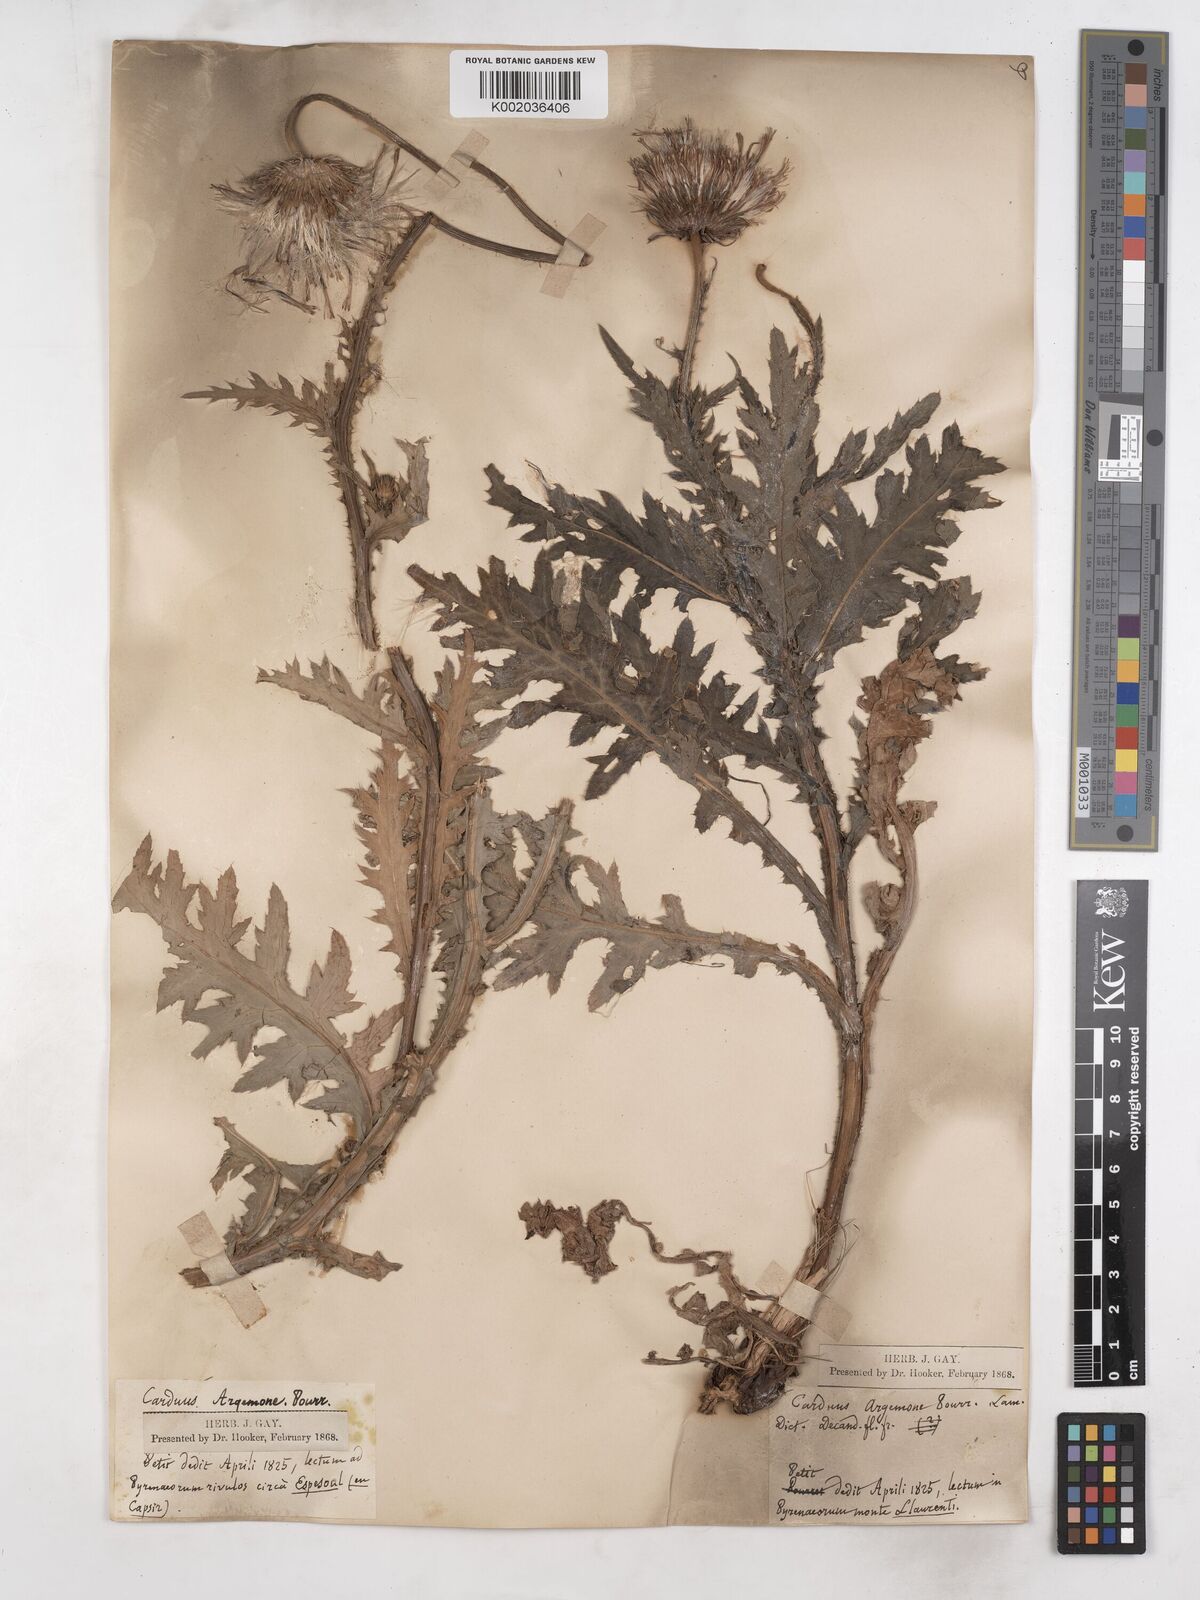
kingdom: Plantae
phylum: Tracheophyta
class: Magnoliopsida
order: Asterales
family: Asteraceae
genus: Carduus
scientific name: Carduus defloratus
